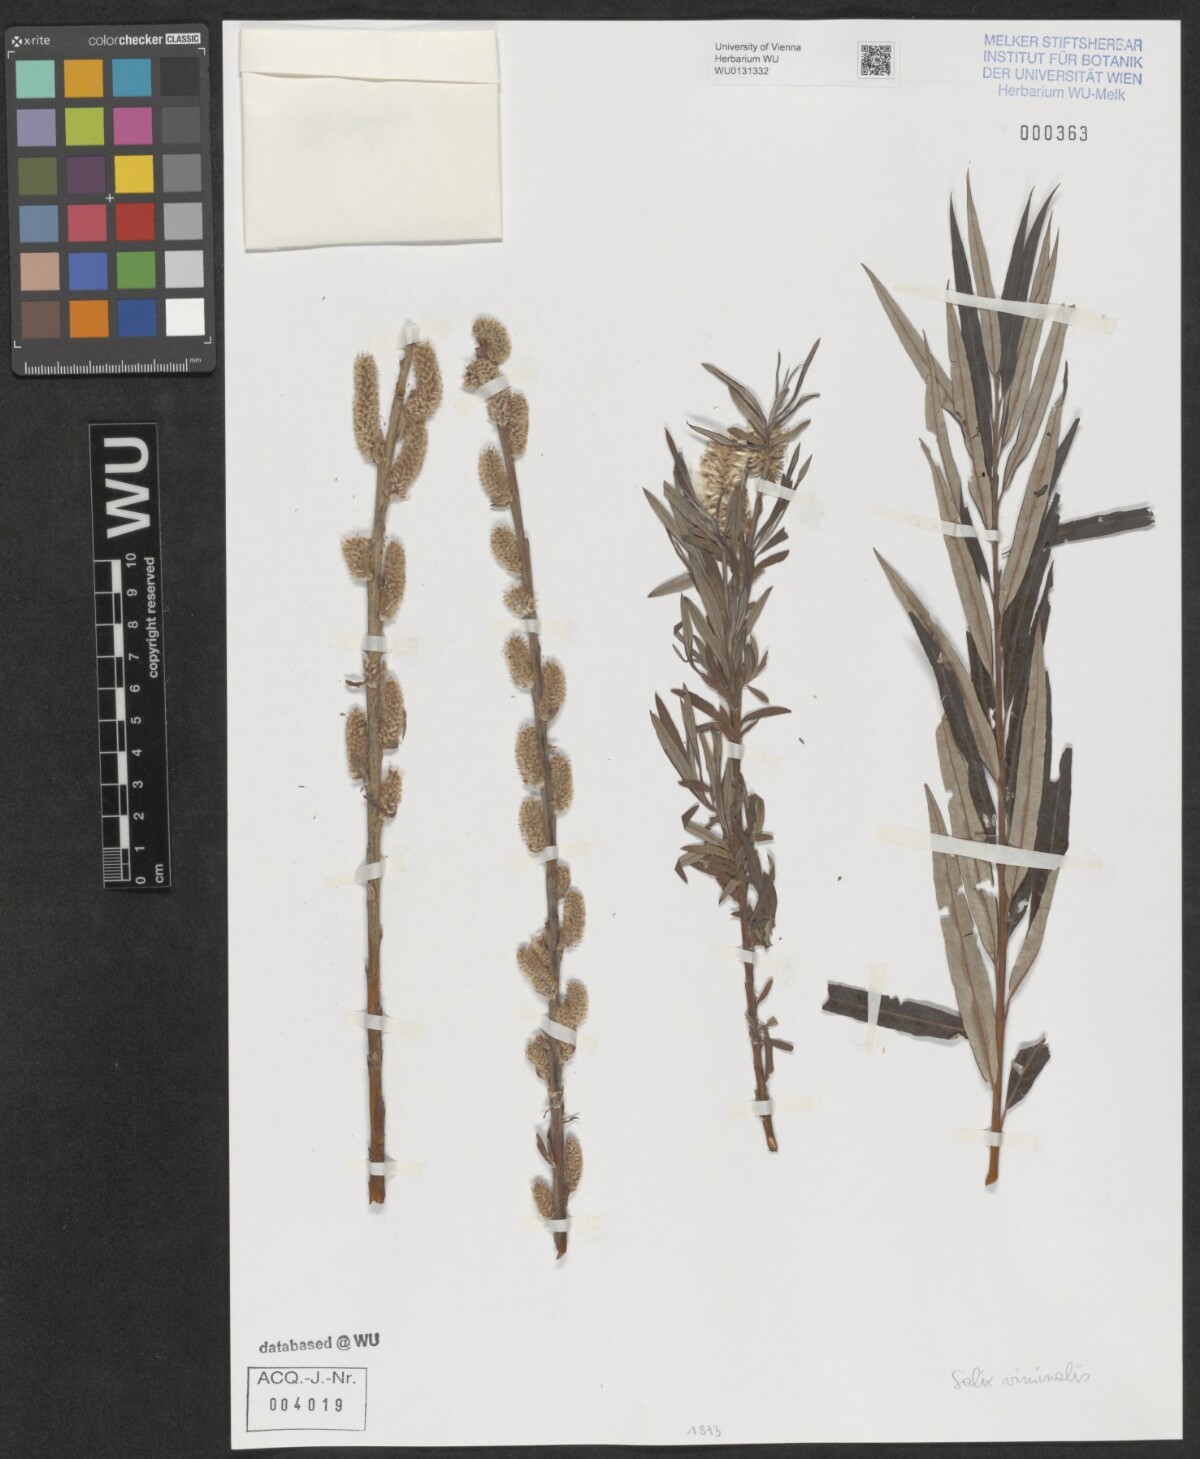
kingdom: Plantae
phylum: Tracheophyta
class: Magnoliopsida
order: Malpighiales
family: Salicaceae
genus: Salix
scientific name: Salix viminalis
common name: Osier
